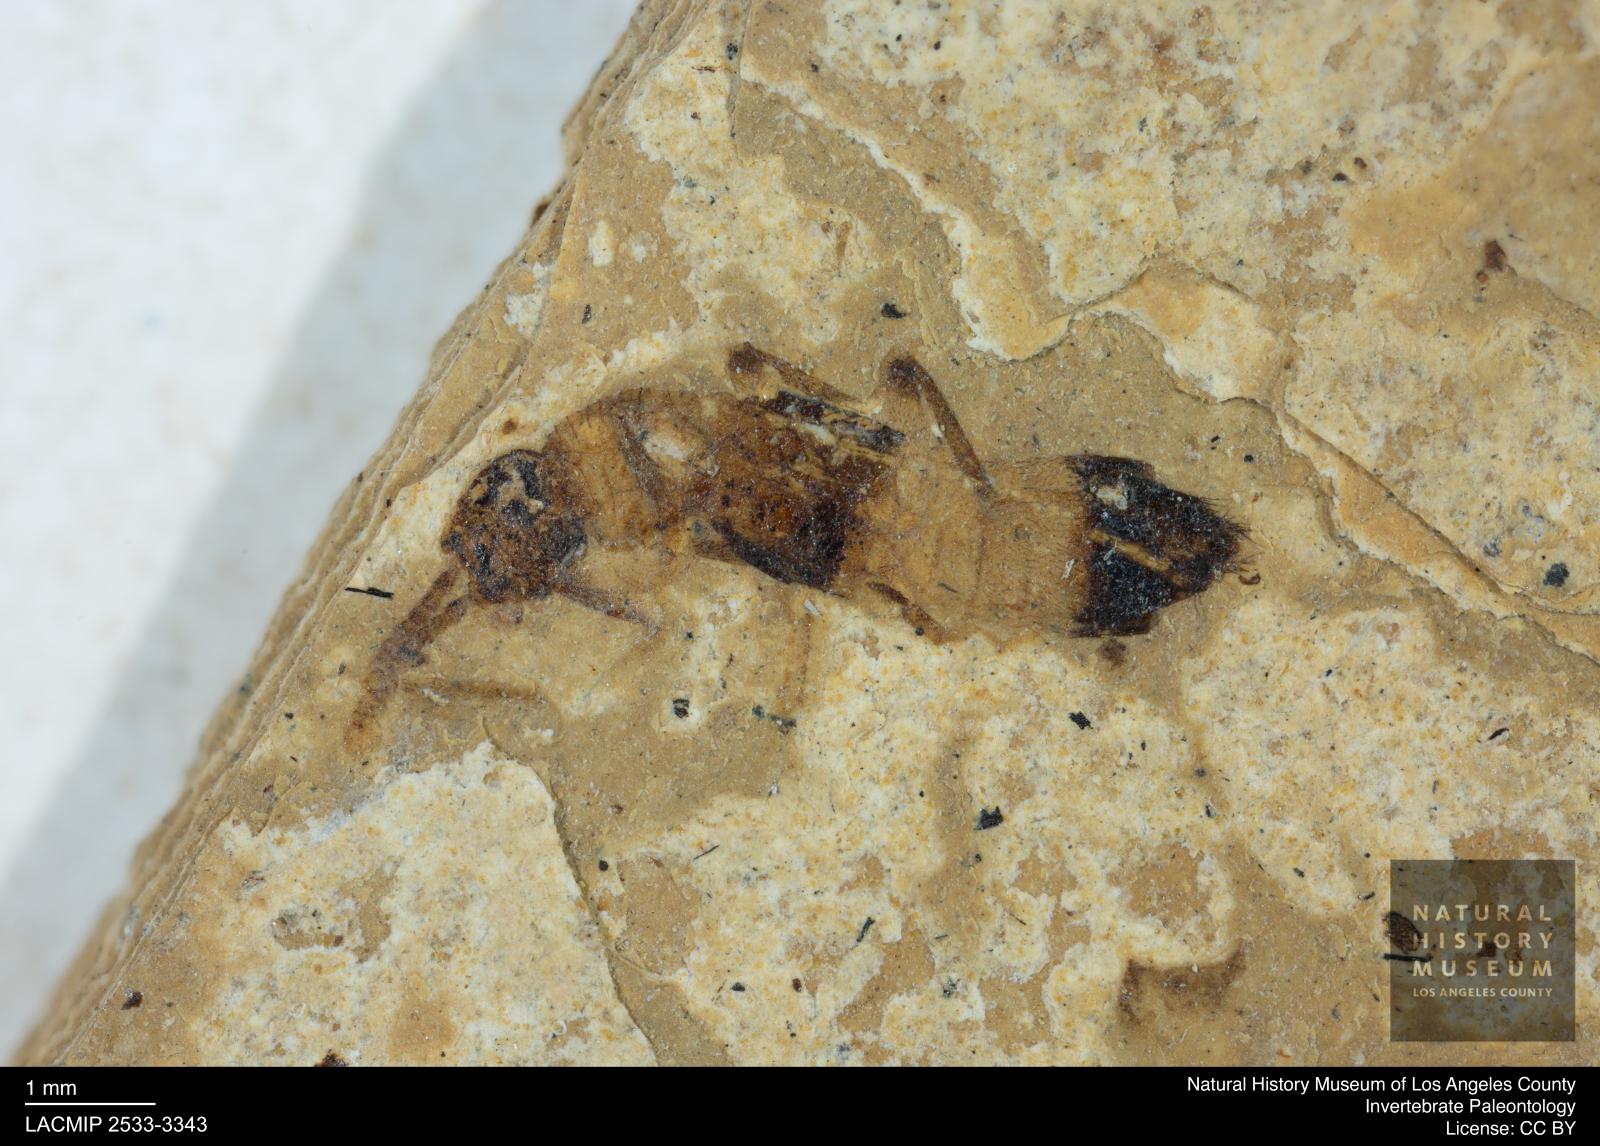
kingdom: Animalia
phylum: Arthropoda
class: Insecta
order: Coleoptera
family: Staphylinidae
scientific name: Staphylinidae
